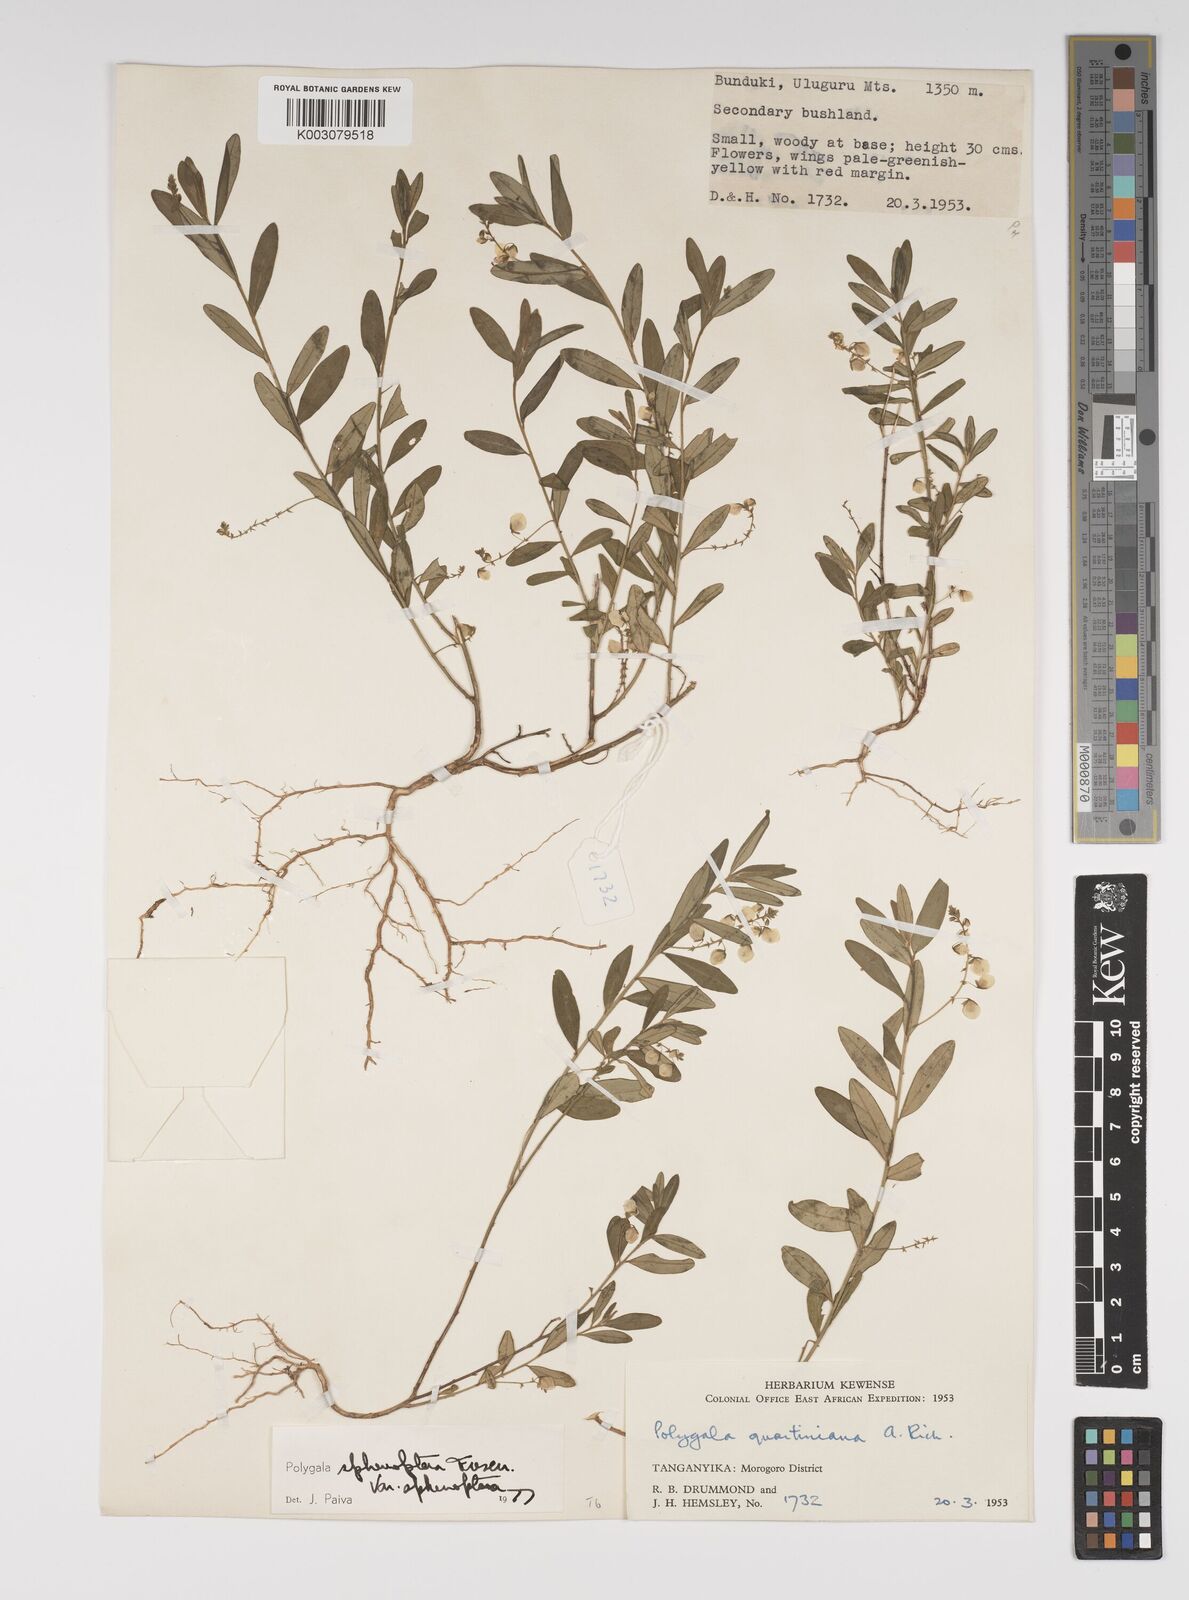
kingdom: Plantae
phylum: Tracheophyta
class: Magnoliopsida
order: Fabales
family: Polygalaceae
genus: Polygala
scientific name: Polygala sphenoptera
